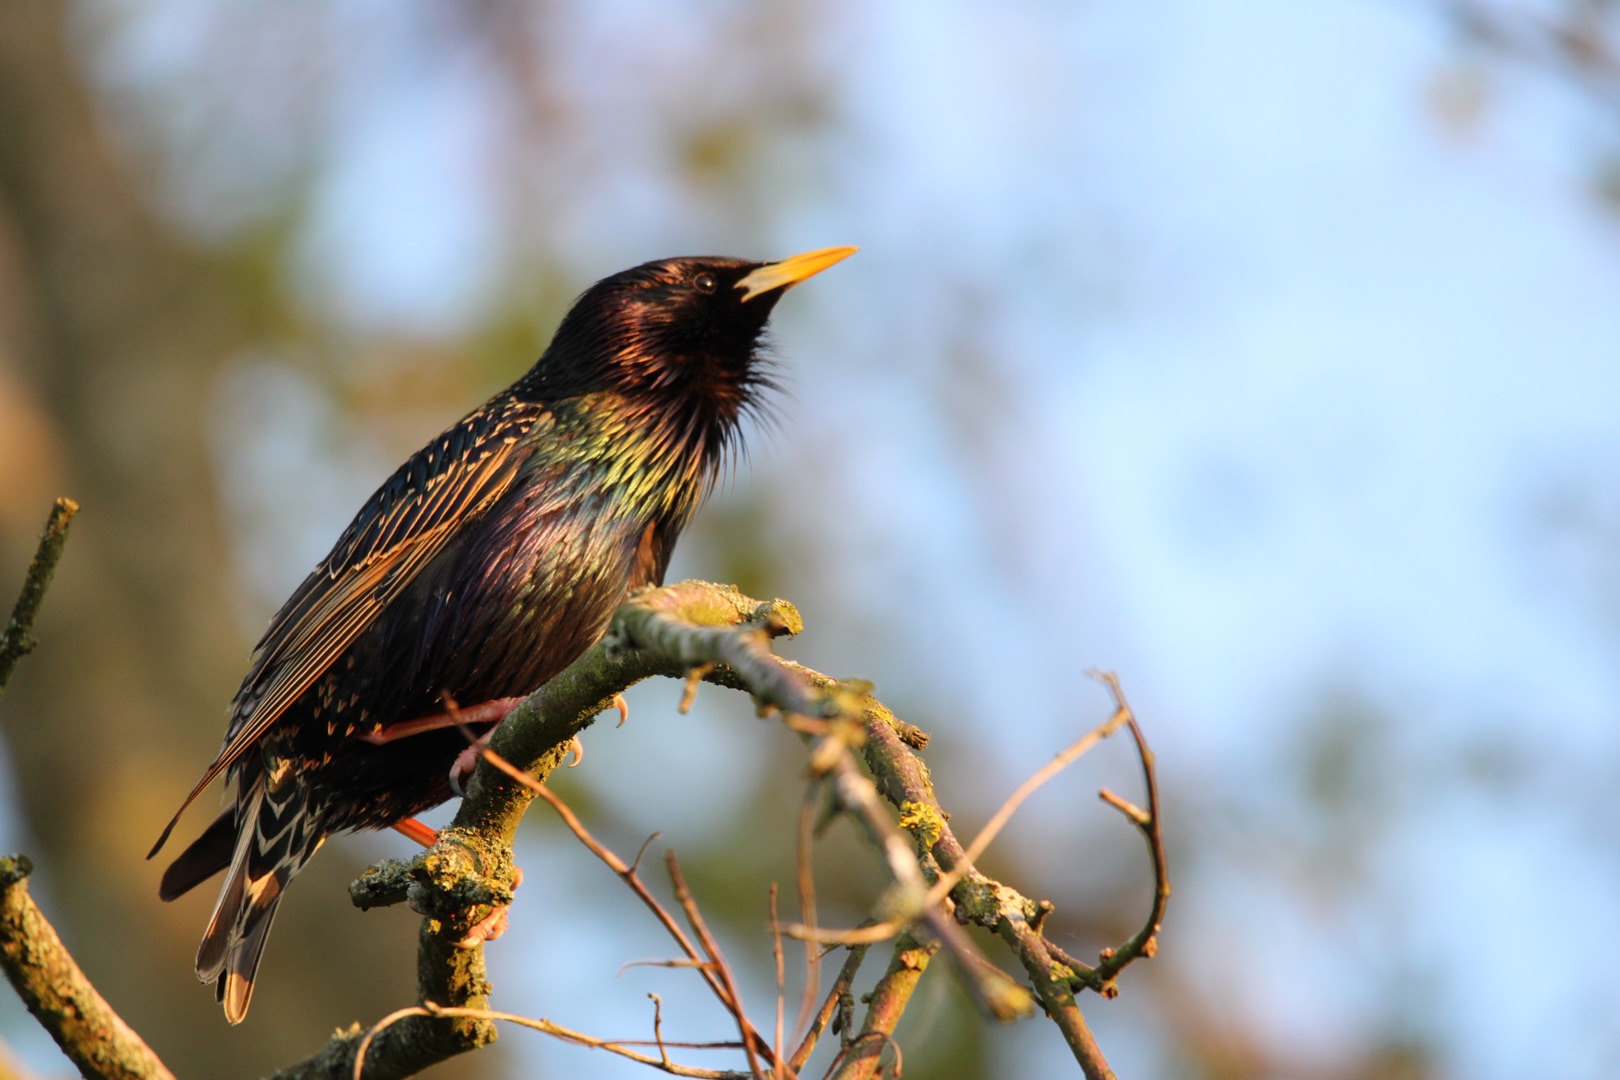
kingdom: Animalia
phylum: Chordata
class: Aves
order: Passeriformes
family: Sturnidae
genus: Sturnus
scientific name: Sturnus vulgaris
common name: Stær
